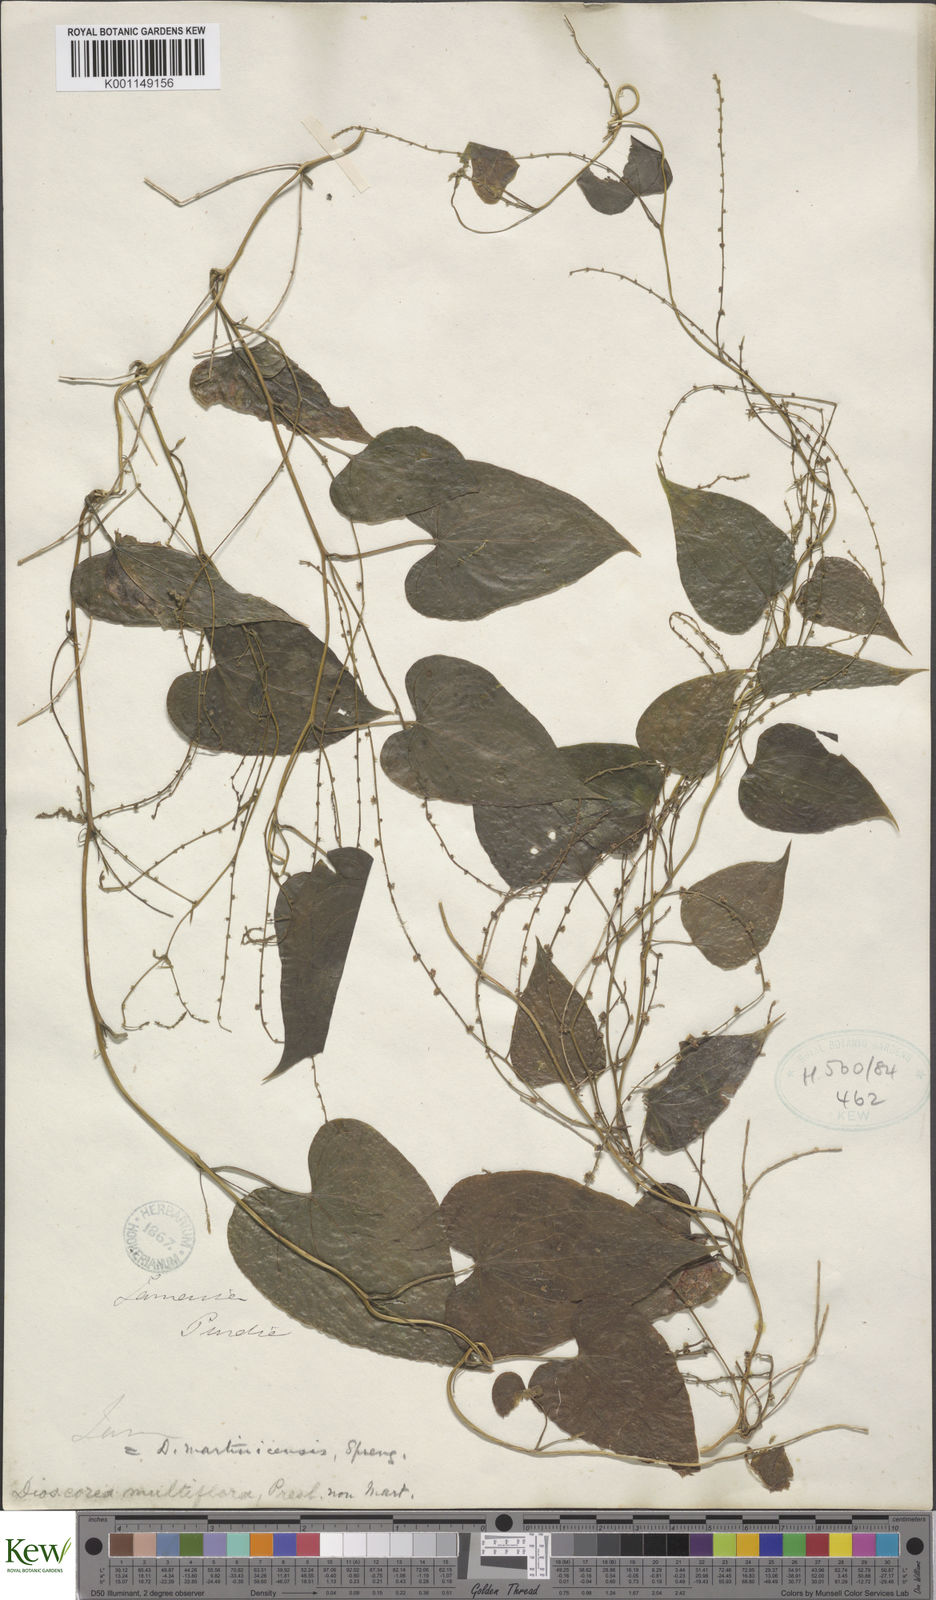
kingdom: Plantae
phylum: Tracheophyta
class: Liliopsida
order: Dioscoreales
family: Dioscoreaceae
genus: Dioscorea
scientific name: Dioscorea polygonoides
